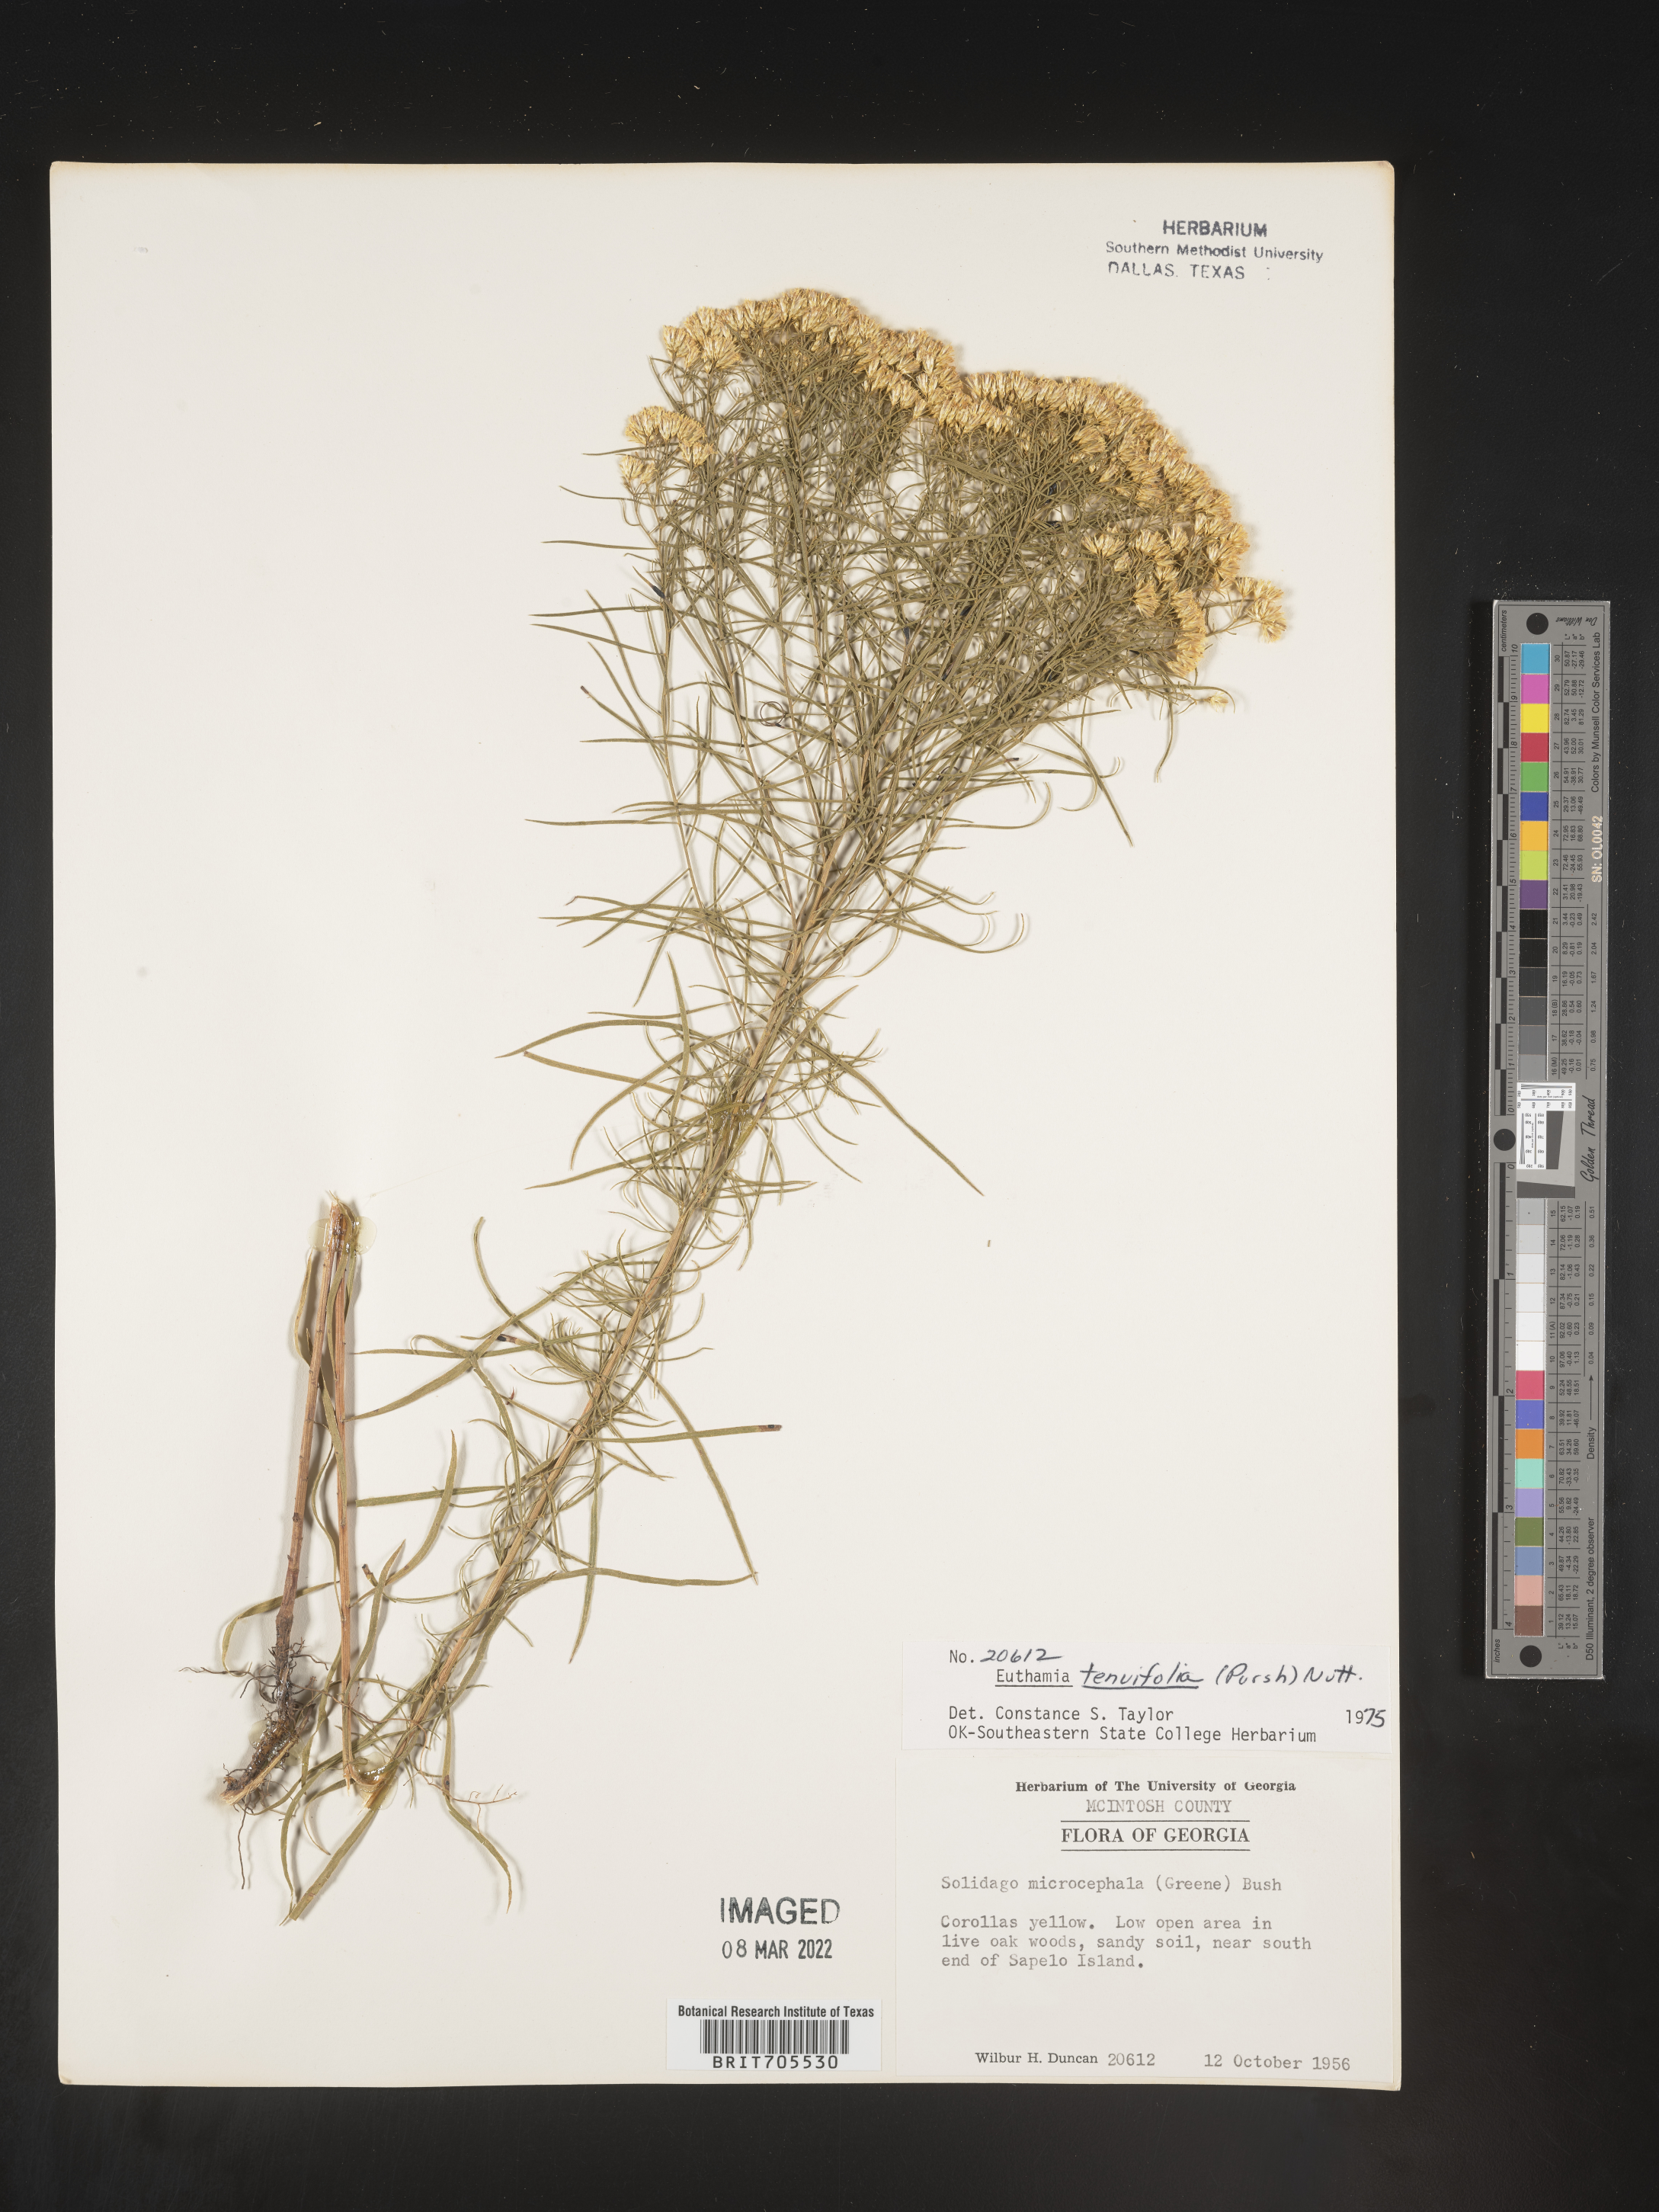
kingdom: Plantae
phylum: Tracheophyta
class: Magnoliopsida
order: Asterales
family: Asteraceae
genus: Euthamia
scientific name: Euthamia caroliniana
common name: Coastal plain goldentop
